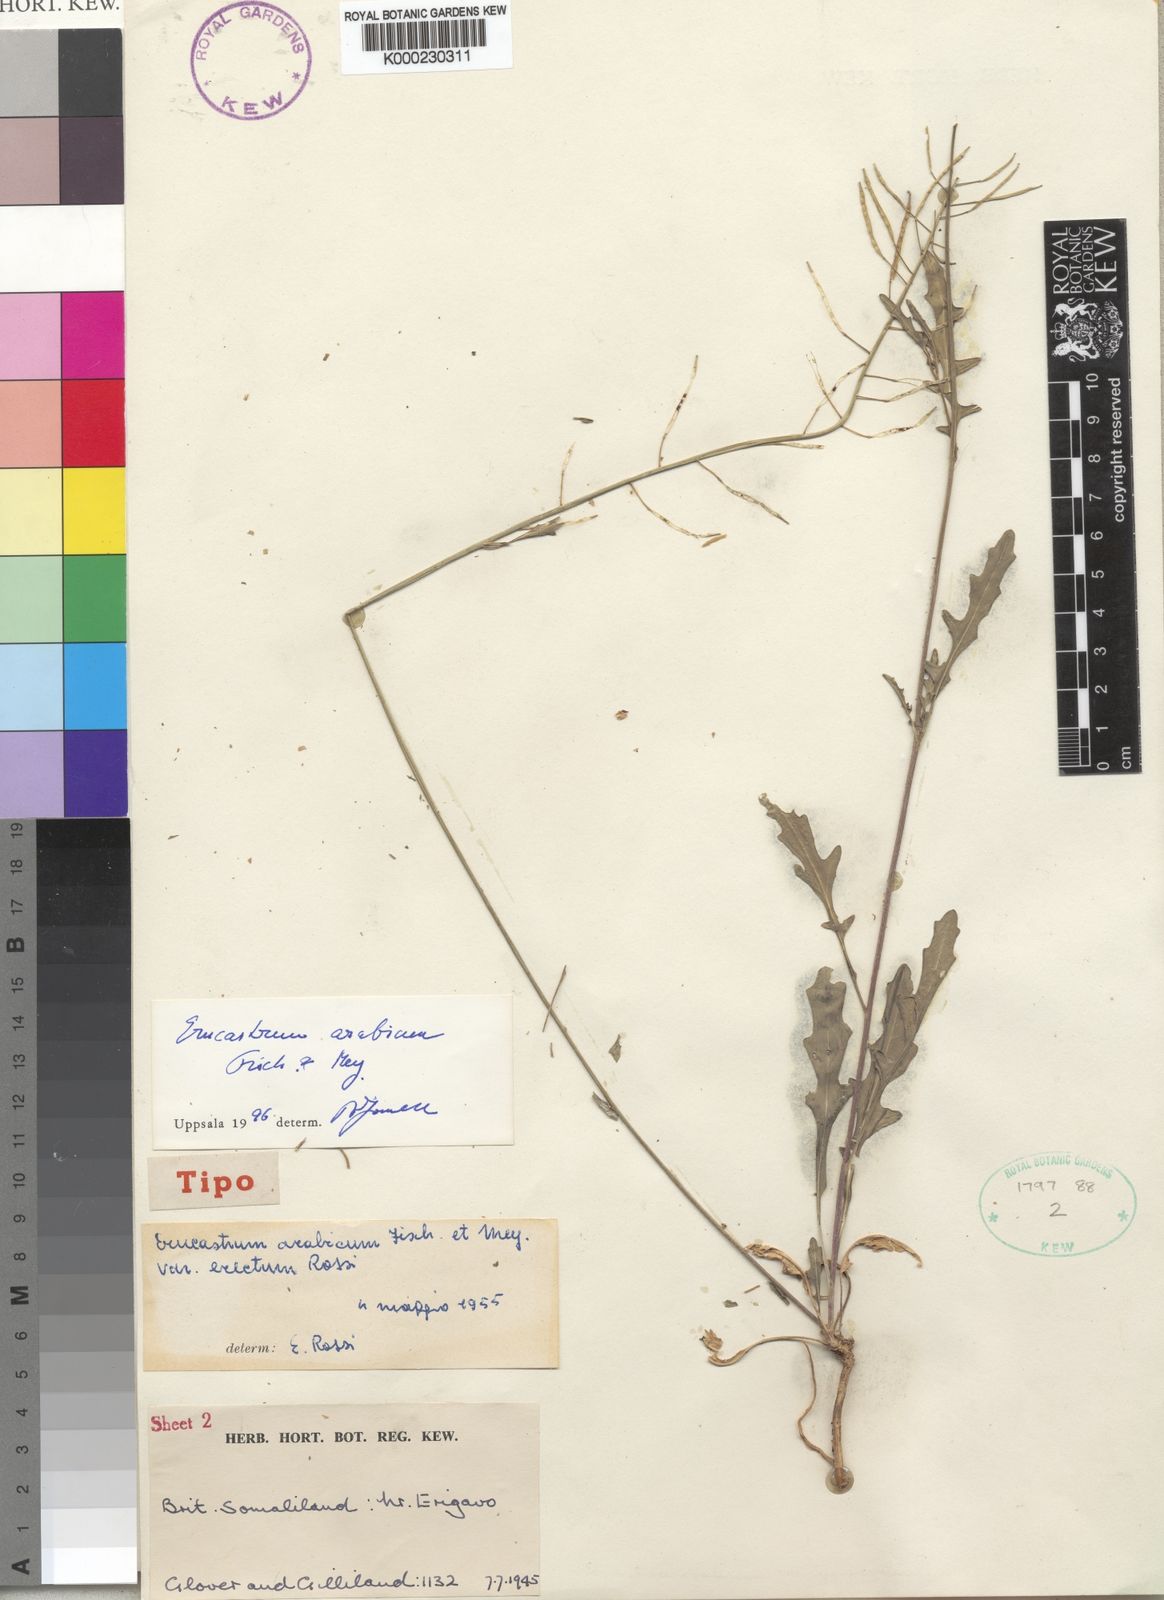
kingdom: Plantae
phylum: Tracheophyta
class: Magnoliopsida
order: Brassicales
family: Brassicaceae
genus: Erucastrum
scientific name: Erucastrum arabicum
